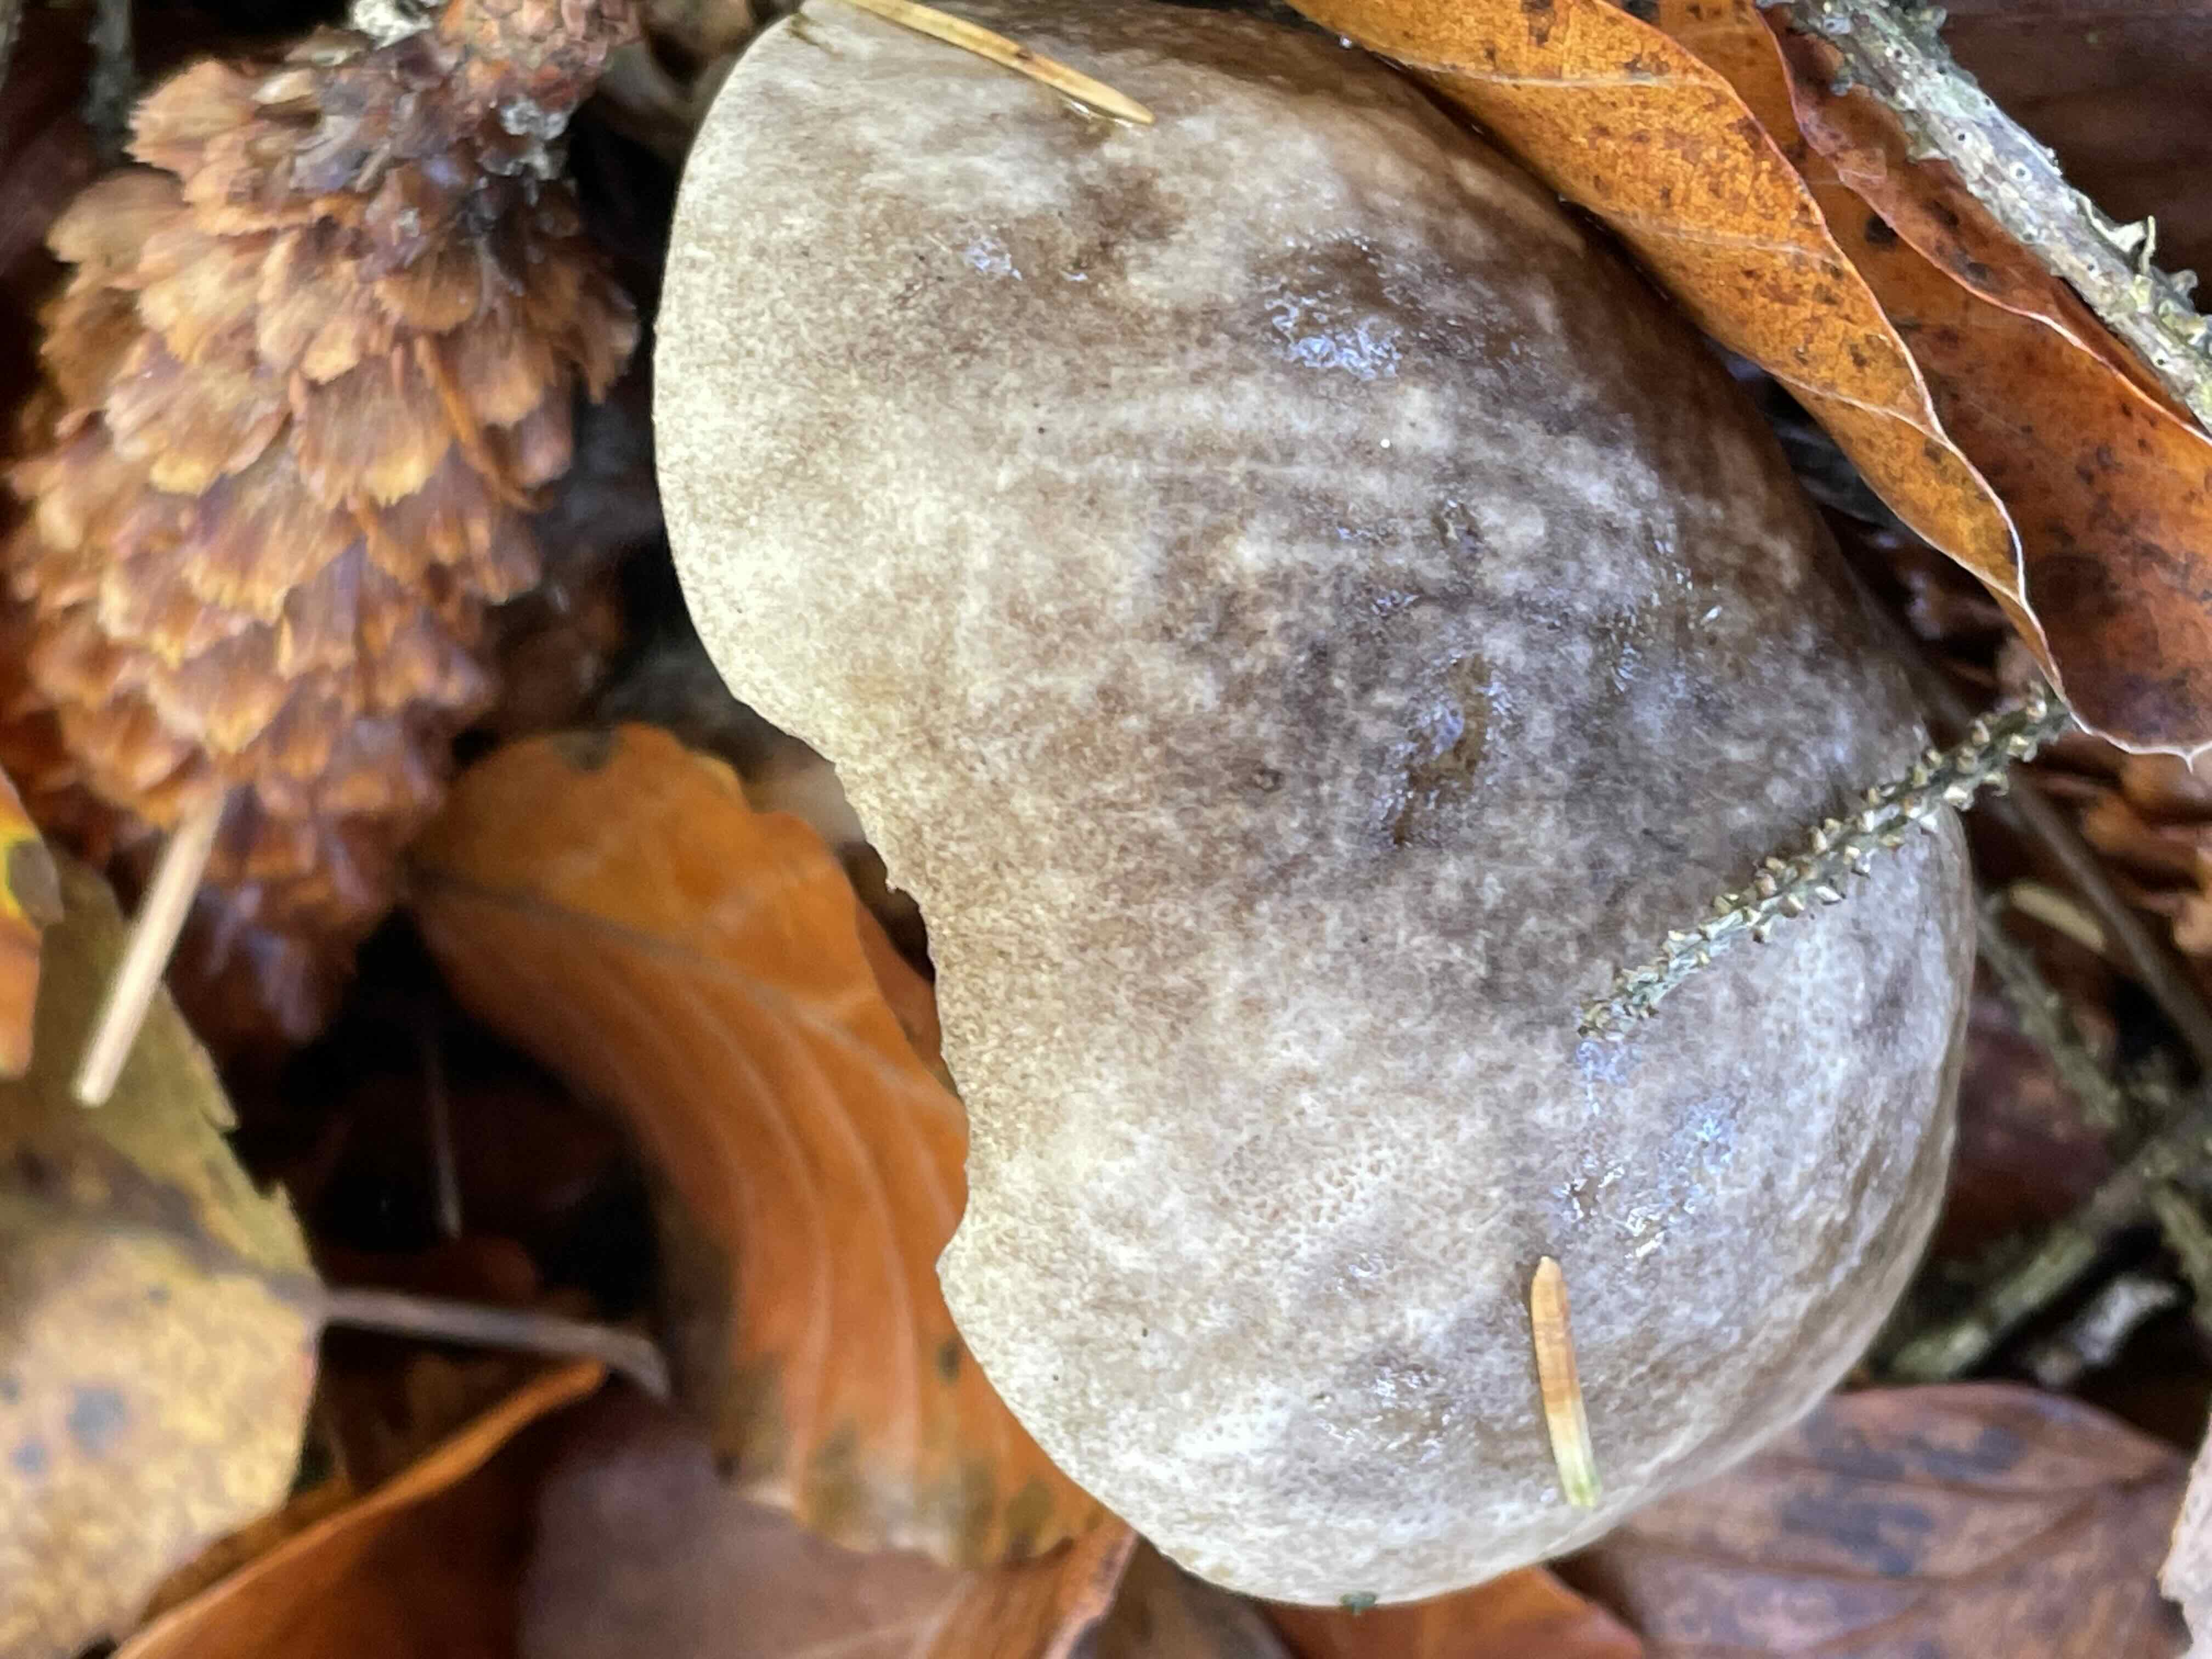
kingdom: Fungi
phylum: Basidiomycota
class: Agaricomycetes
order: Boletales
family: Boletaceae
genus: Leccinum
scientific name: Leccinum variicolor
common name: flammet skælrørhat
